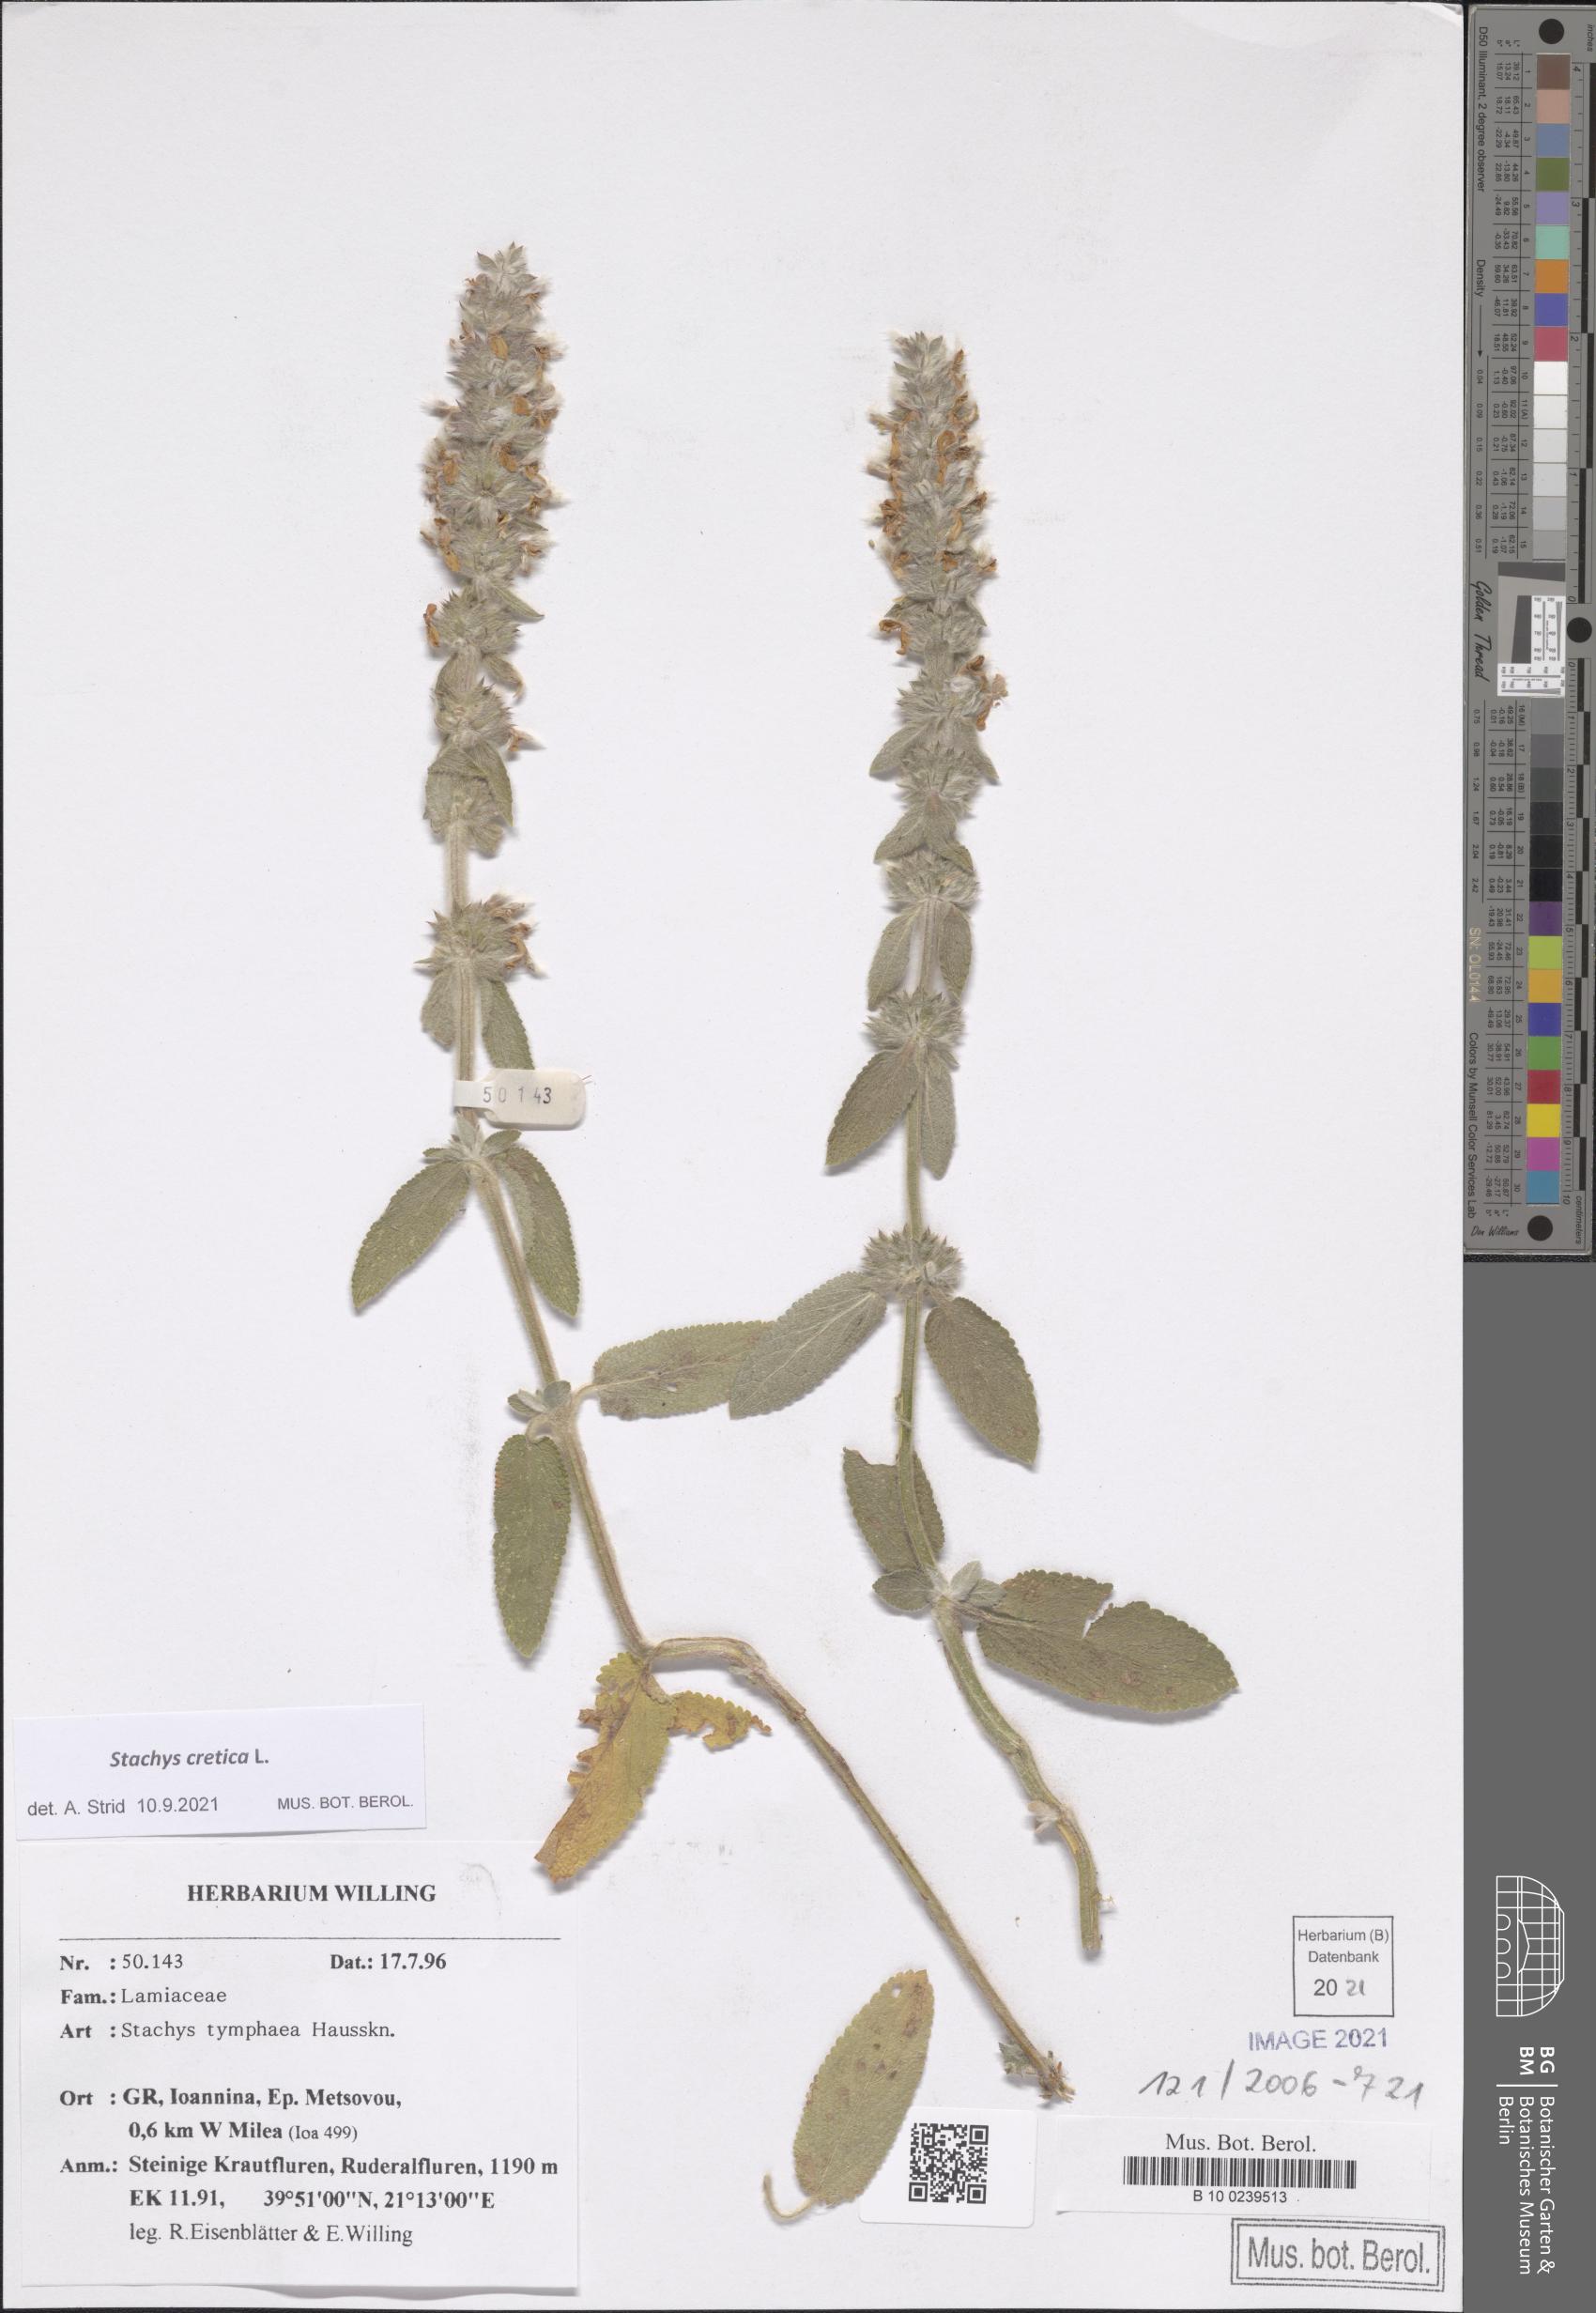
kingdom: Plantae
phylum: Tracheophyta
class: Magnoliopsida
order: Lamiales
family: Lamiaceae
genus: Stachys
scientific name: Stachys cretica
